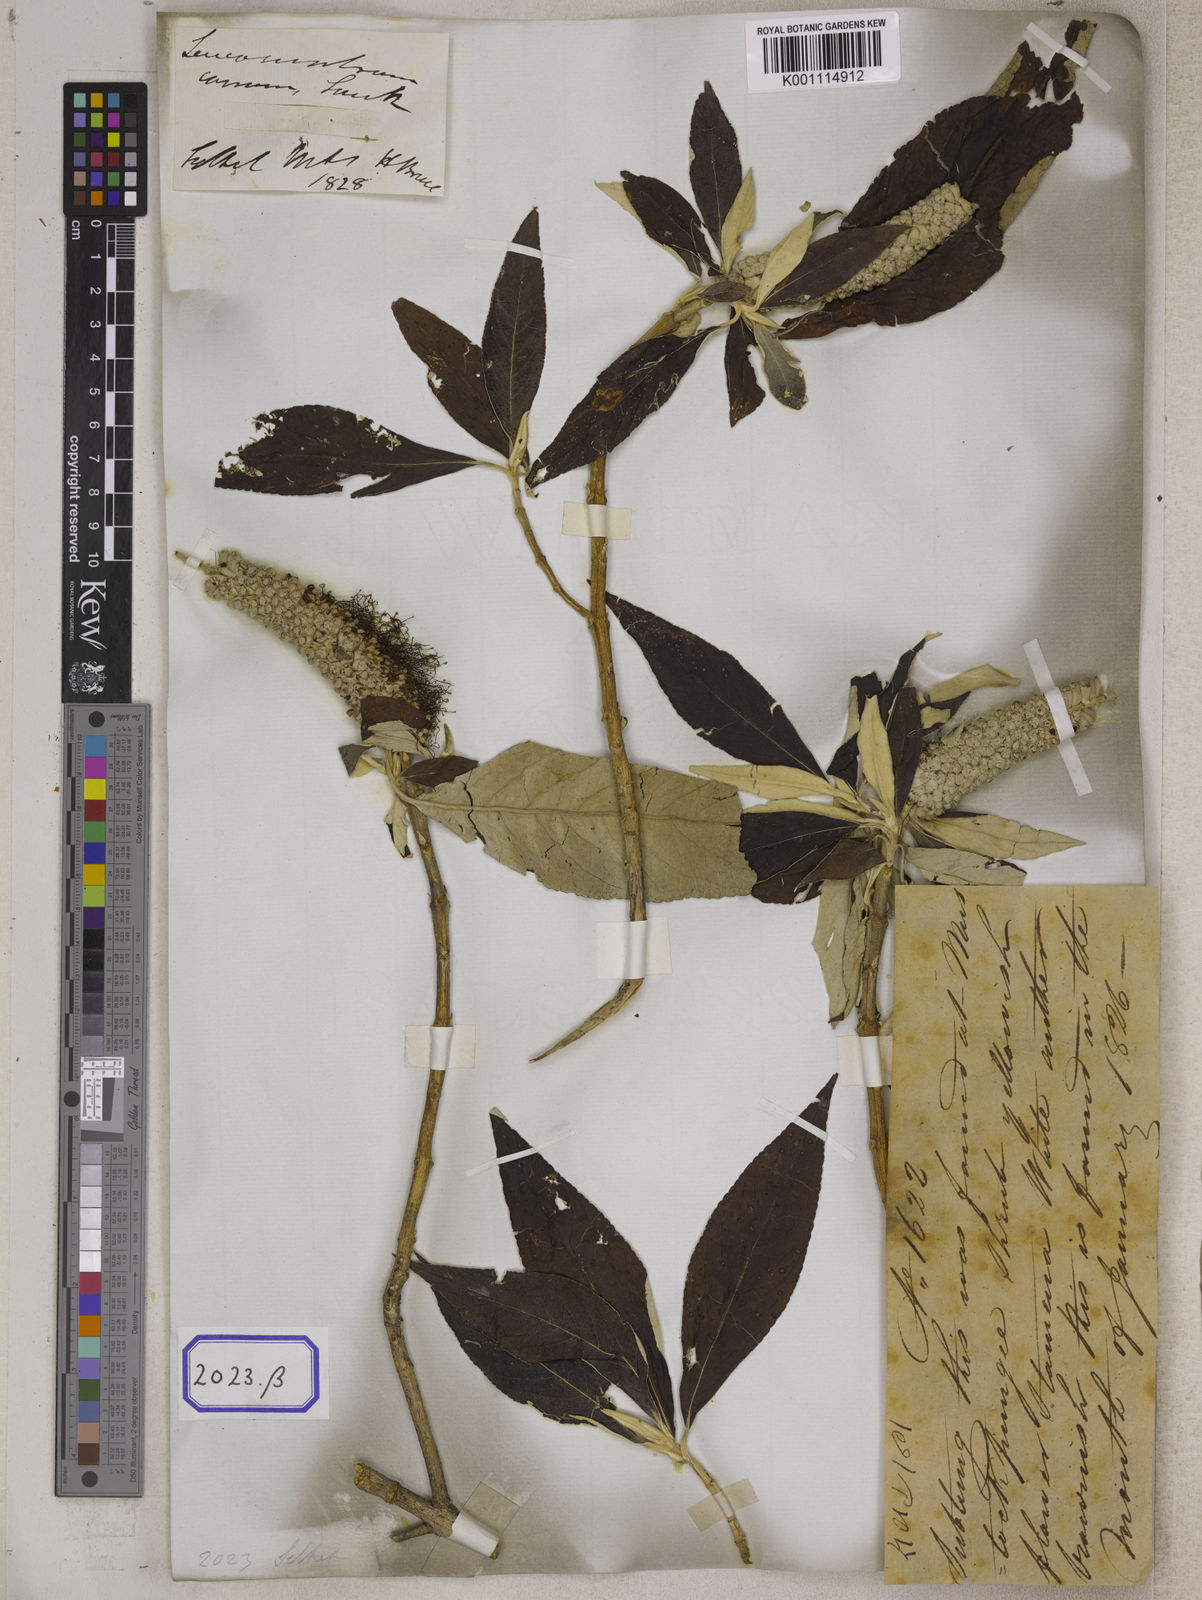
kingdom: Plantae
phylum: Tracheophyta
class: Magnoliopsida
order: Lamiales
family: Lamiaceae
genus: Leucosceptrum
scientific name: Leucosceptrum
